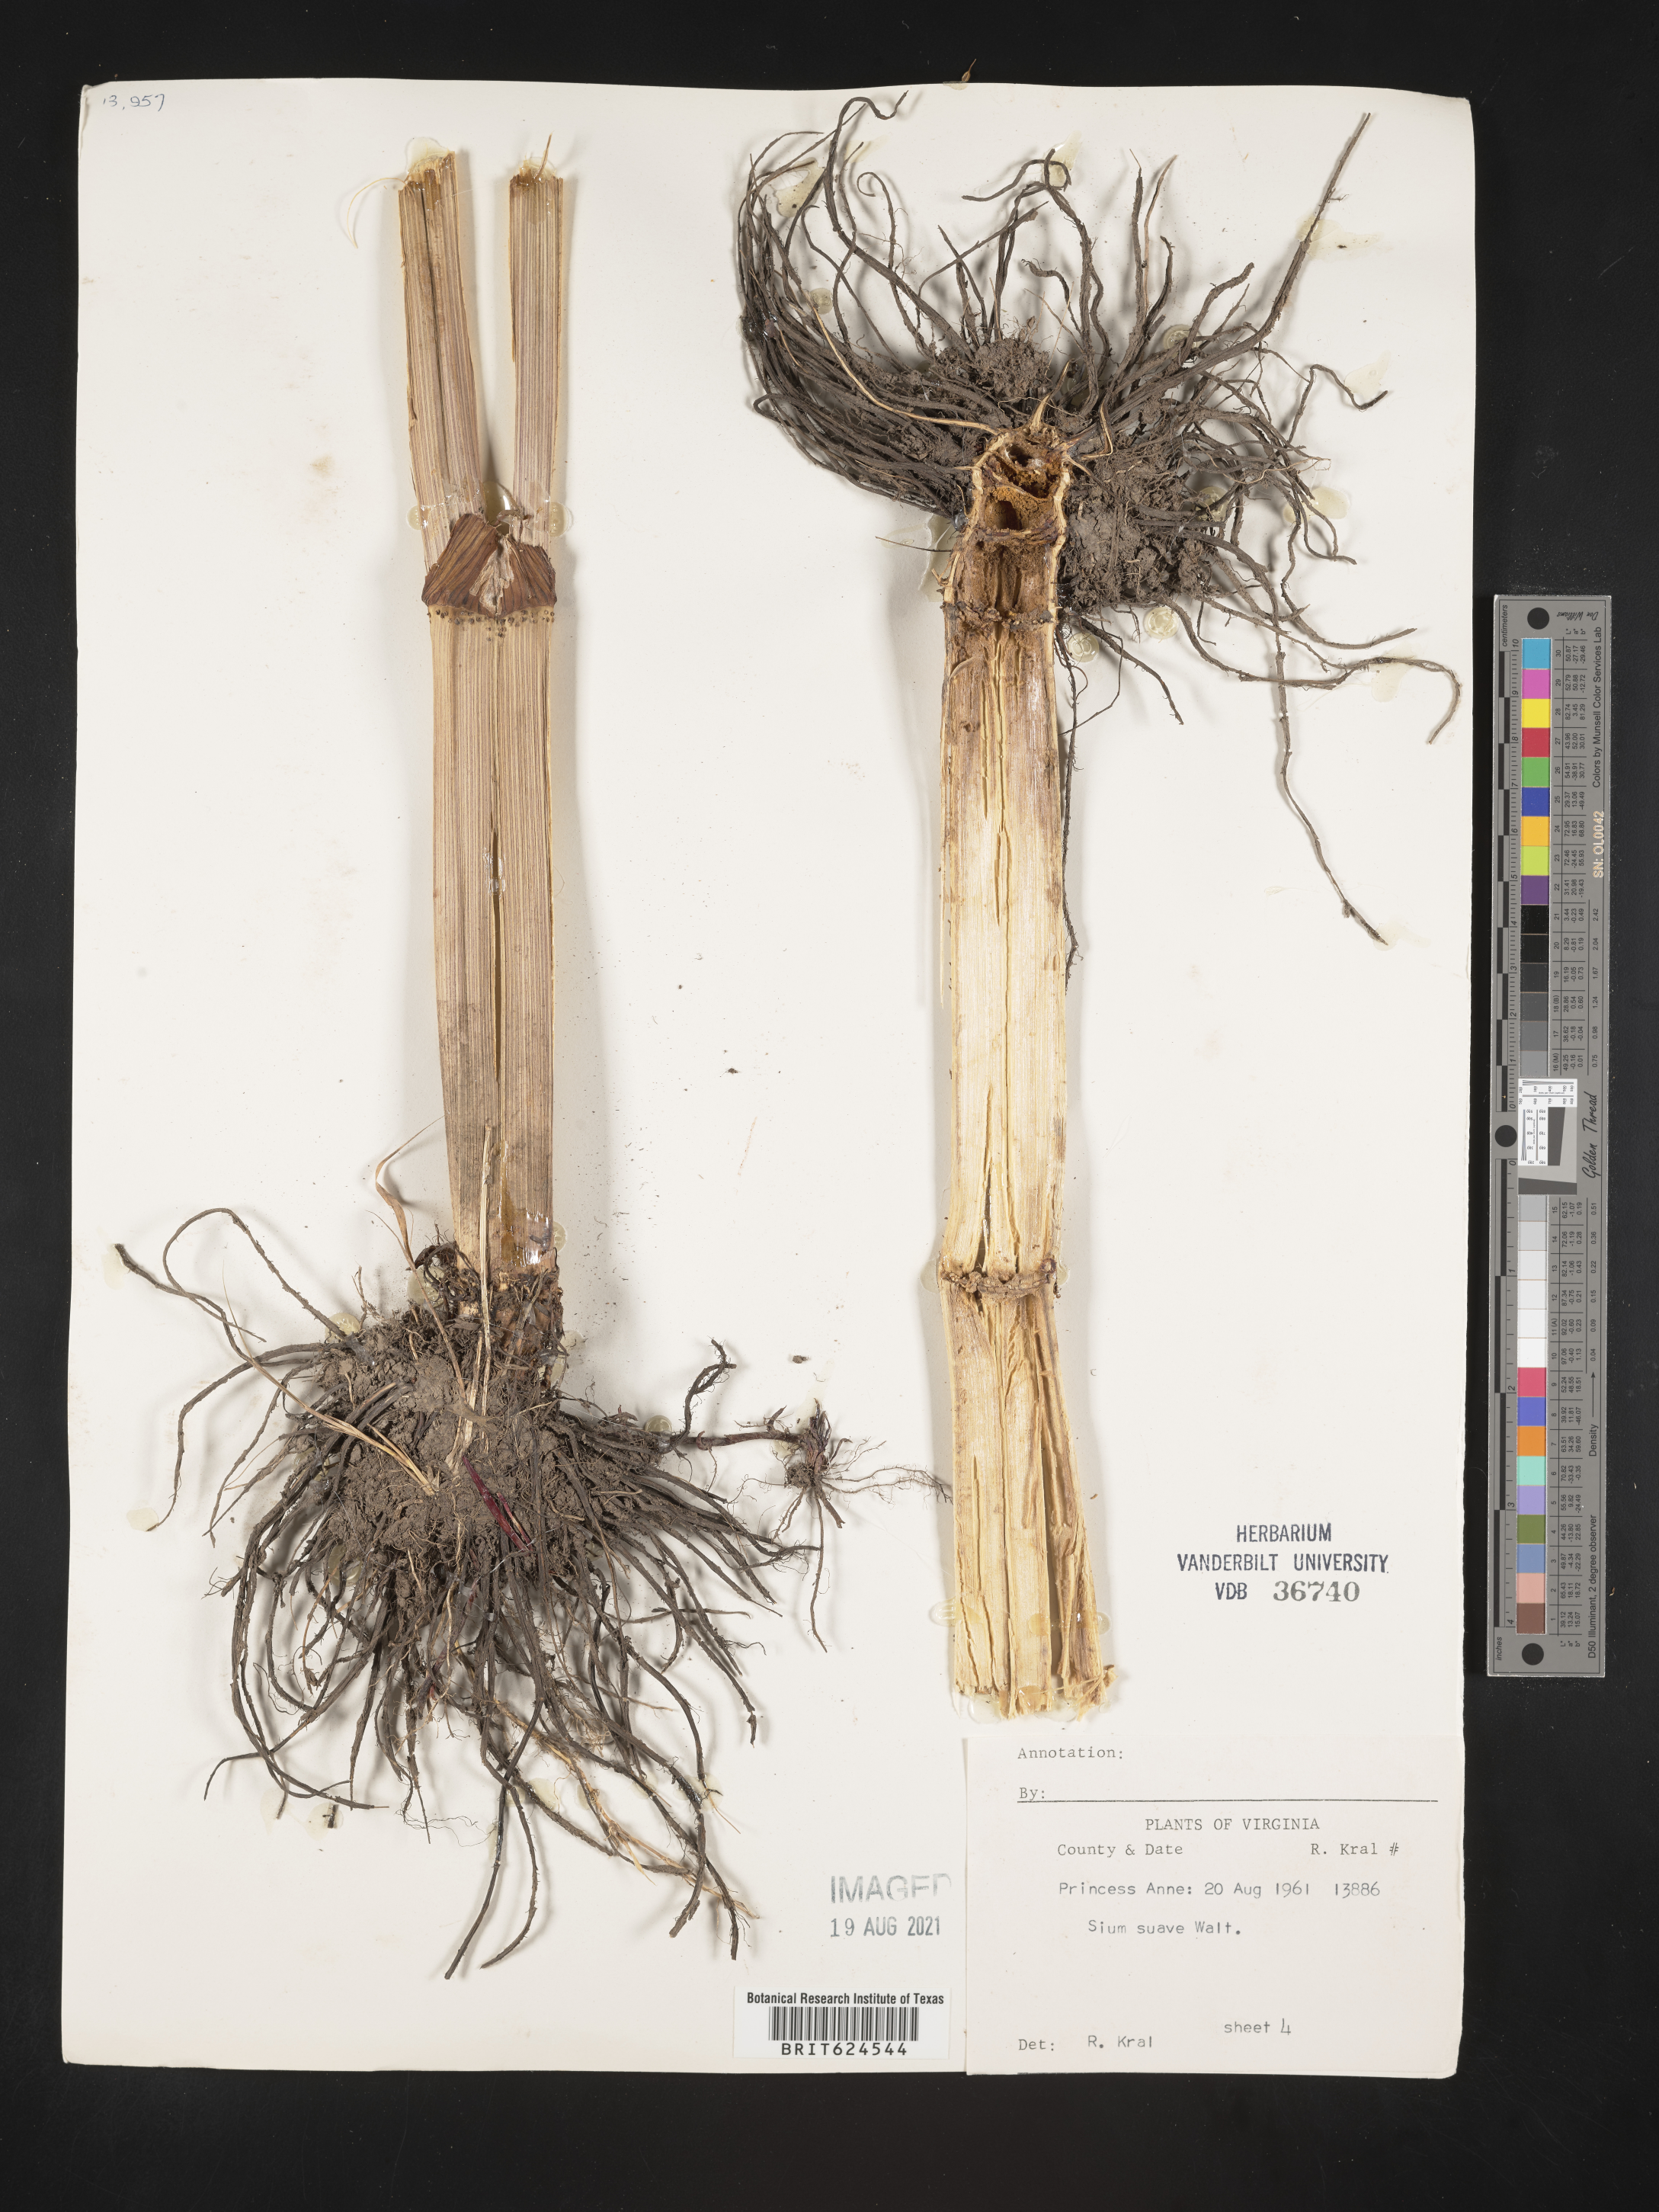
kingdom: Plantae
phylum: Tracheophyta
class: Magnoliopsida
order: Apiales
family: Apiaceae
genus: Sium
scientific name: Sium suave
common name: Hemlock water-parsnip
